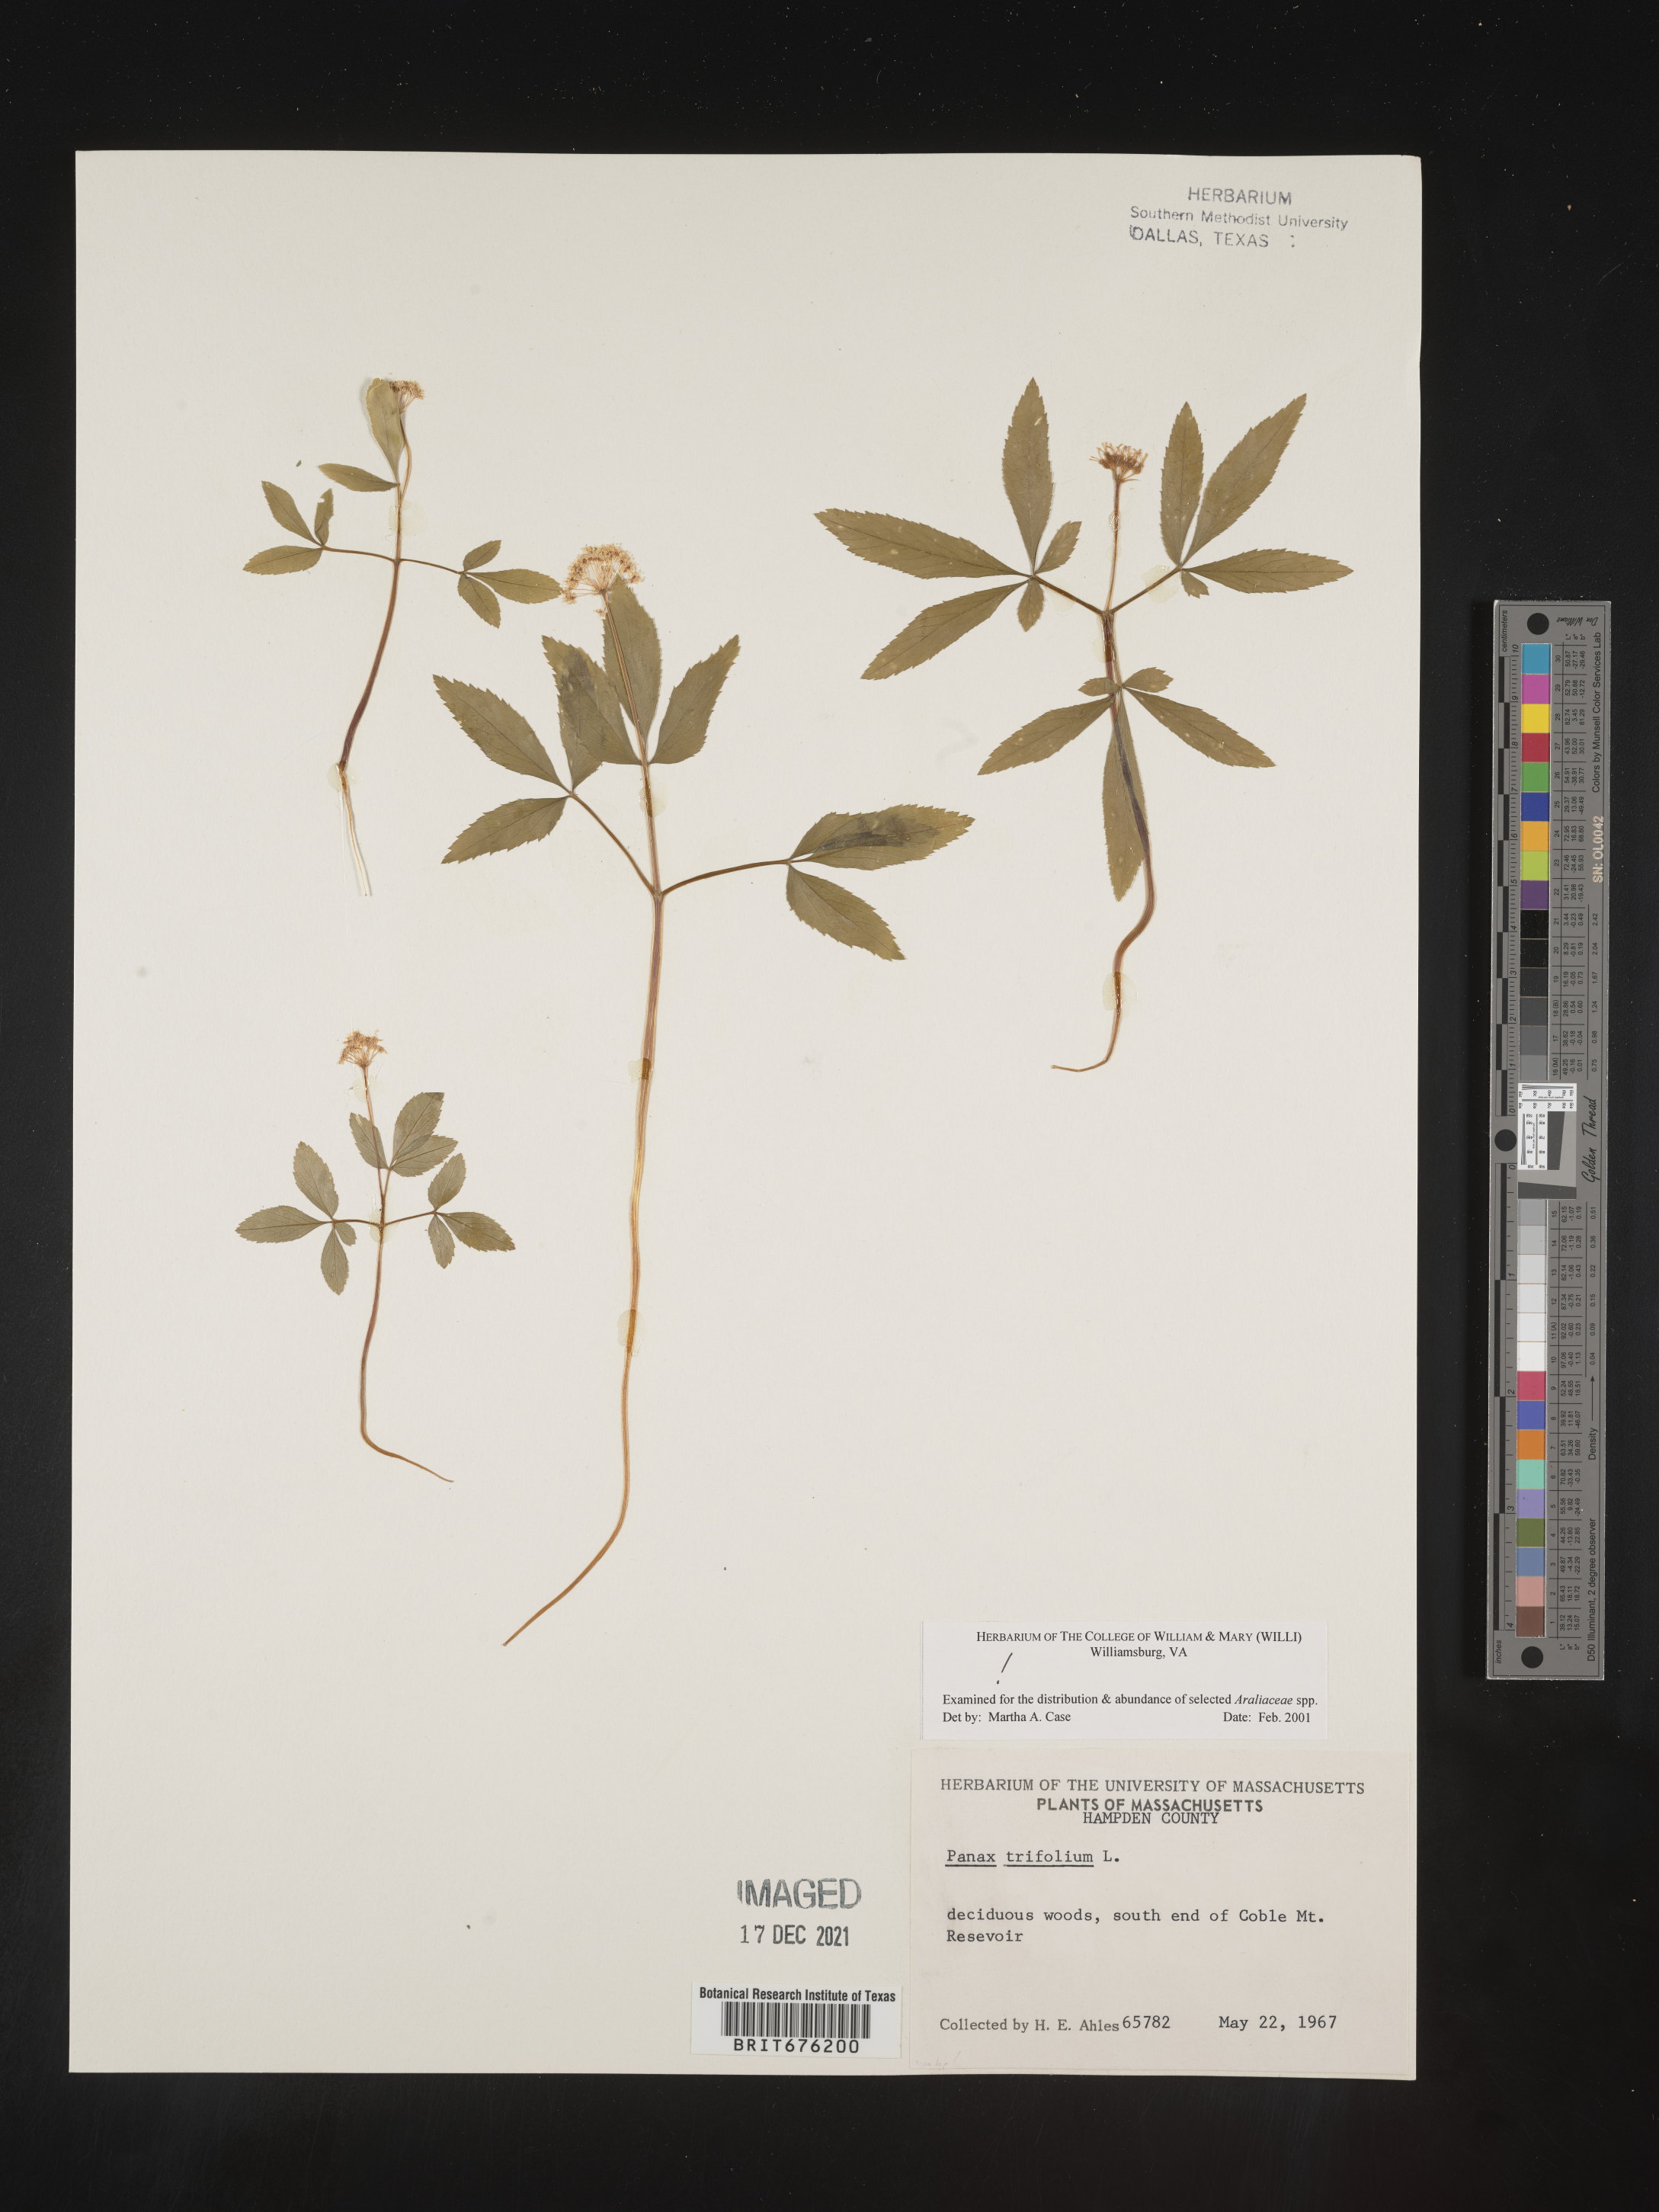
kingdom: Plantae
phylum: Tracheophyta
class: Magnoliopsida
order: Apiales
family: Araliaceae
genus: Panax
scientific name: Panax trifolius
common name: Dwarf ginseng
